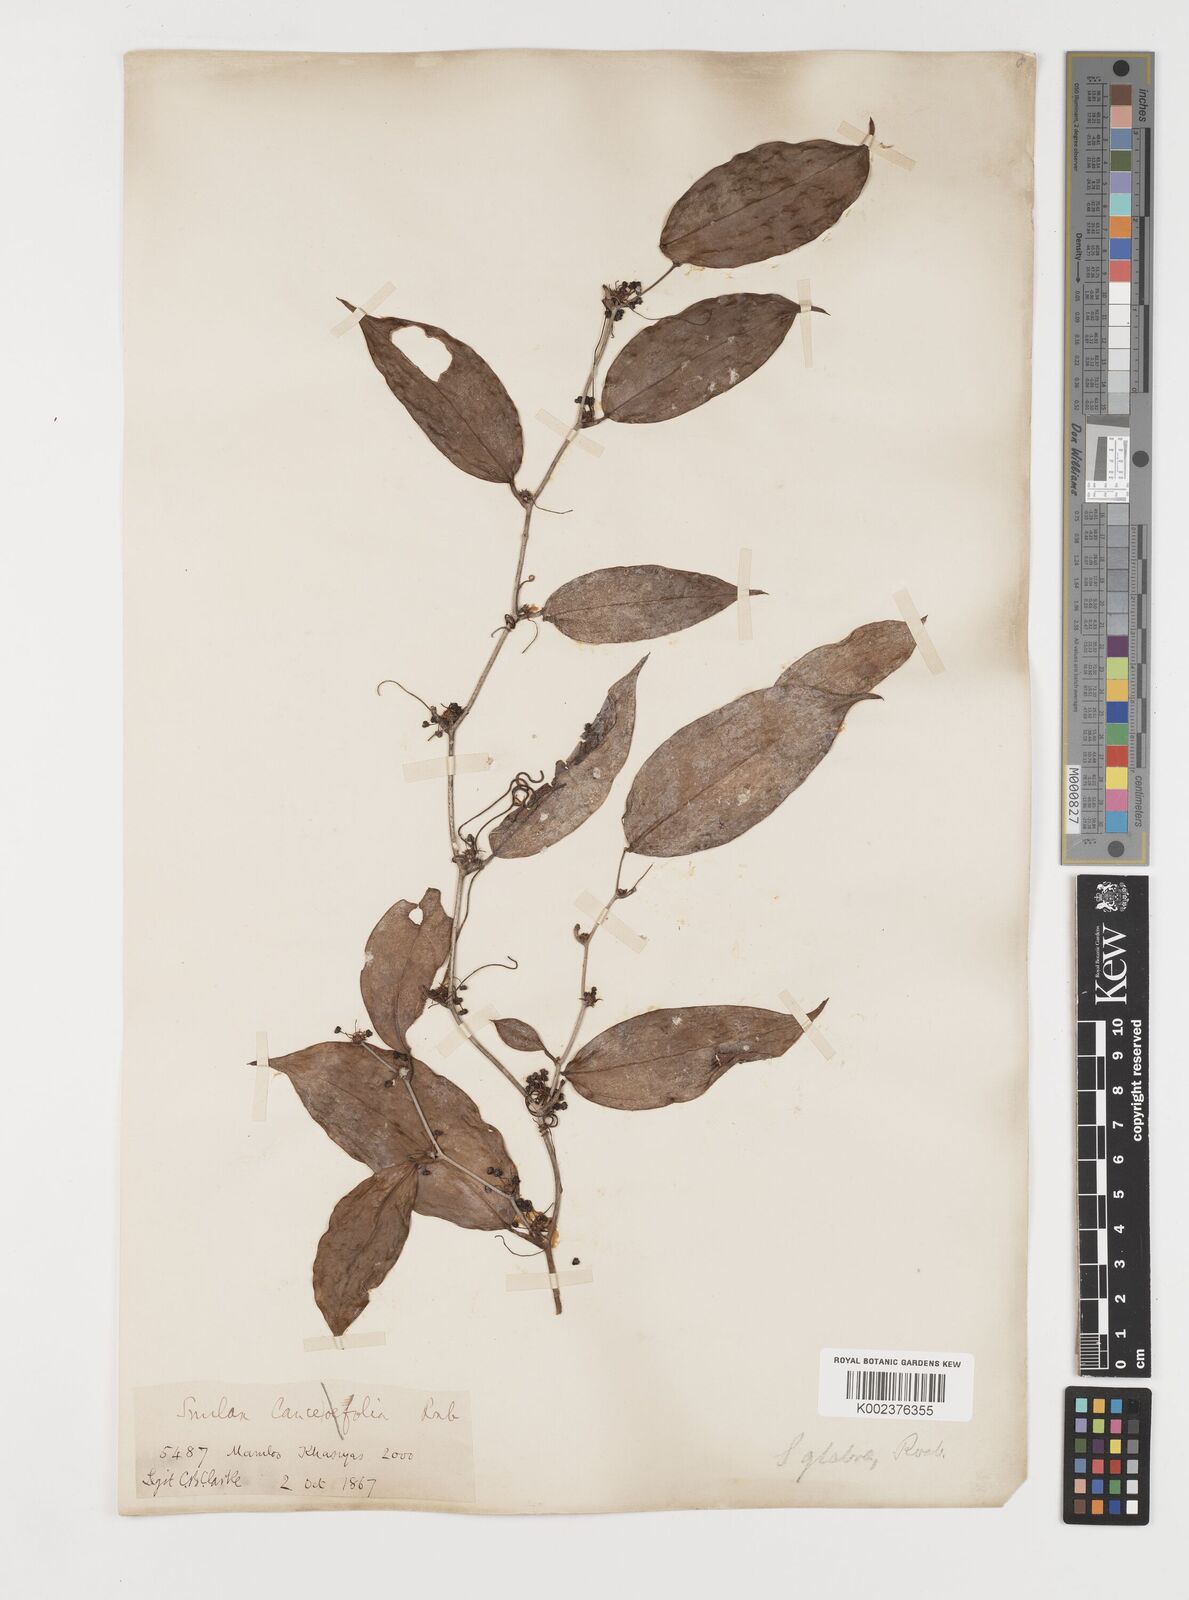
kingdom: Plantae
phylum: Tracheophyta
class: Liliopsida
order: Liliales
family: Smilacaceae
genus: Smilax
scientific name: Smilax glabra
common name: Chinese smilax
